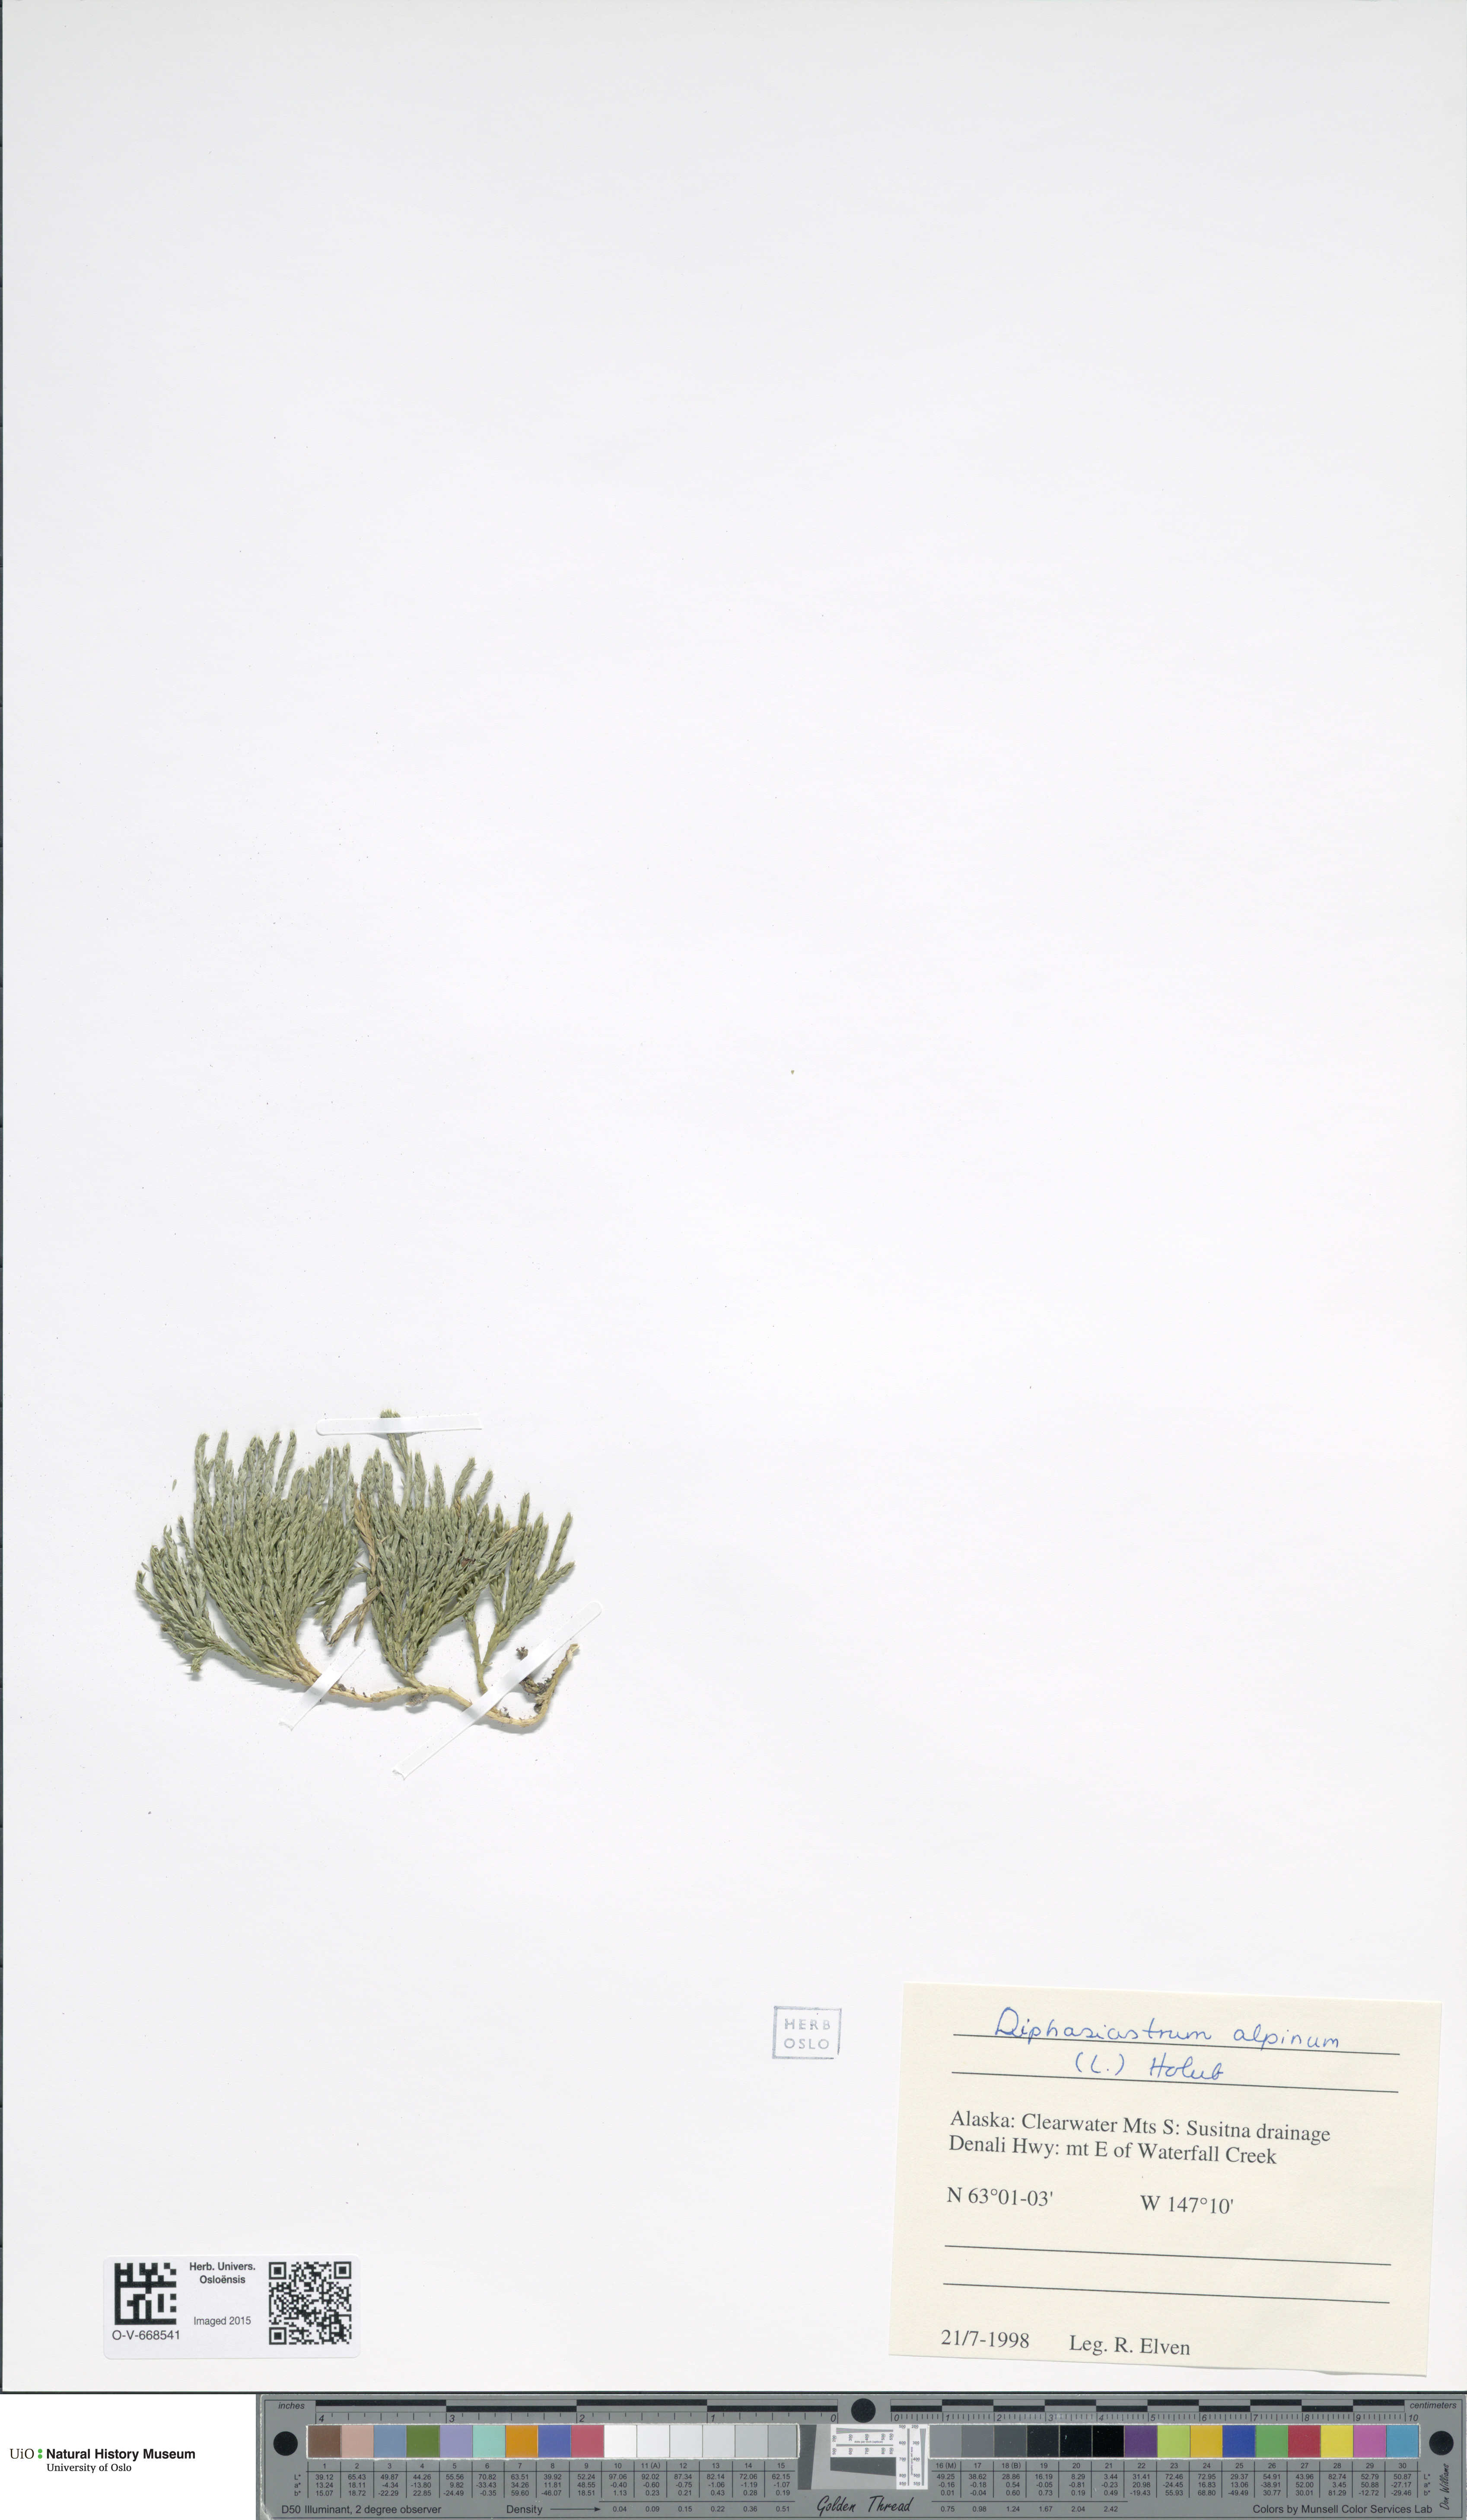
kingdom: Plantae
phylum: Tracheophyta
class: Lycopodiopsida
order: Lycopodiales
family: Lycopodiaceae
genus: Diphasiastrum
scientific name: Diphasiastrum alpinum
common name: Alpine clubmoss
